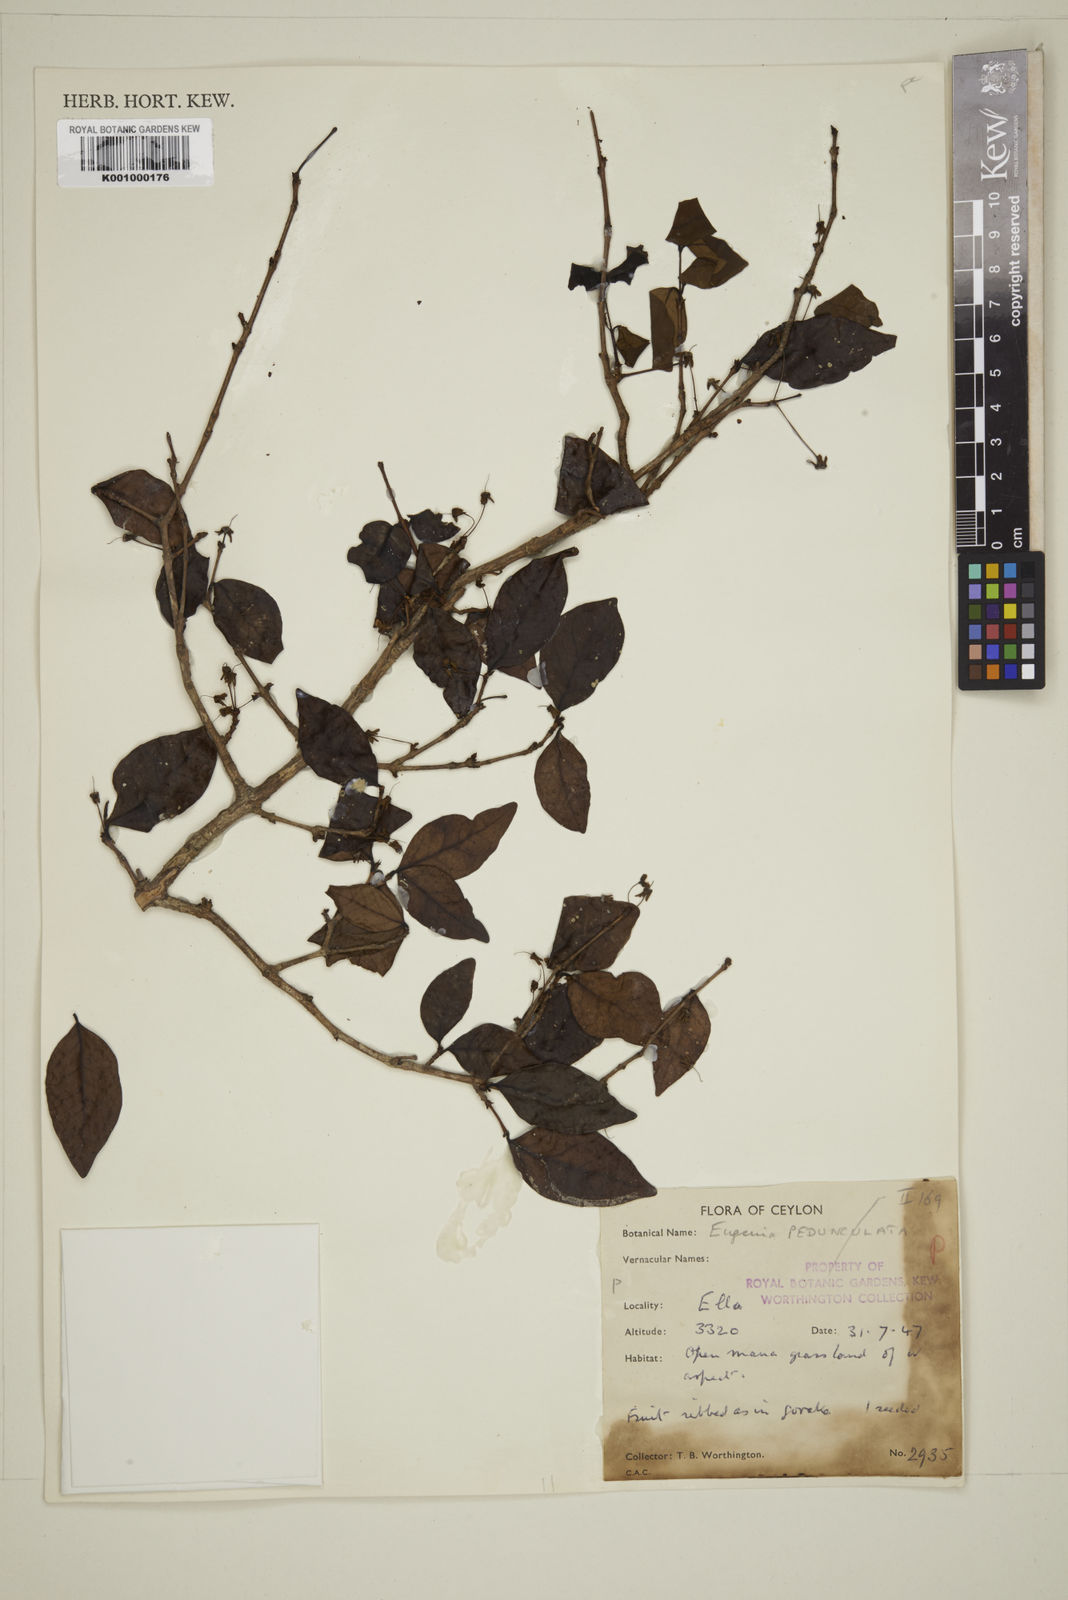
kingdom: Plantae
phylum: Tracheophyta
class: Magnoliopsida
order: Myrtales
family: Myrtaceae
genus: Eugenia
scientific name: Eugenia mabaeoides
